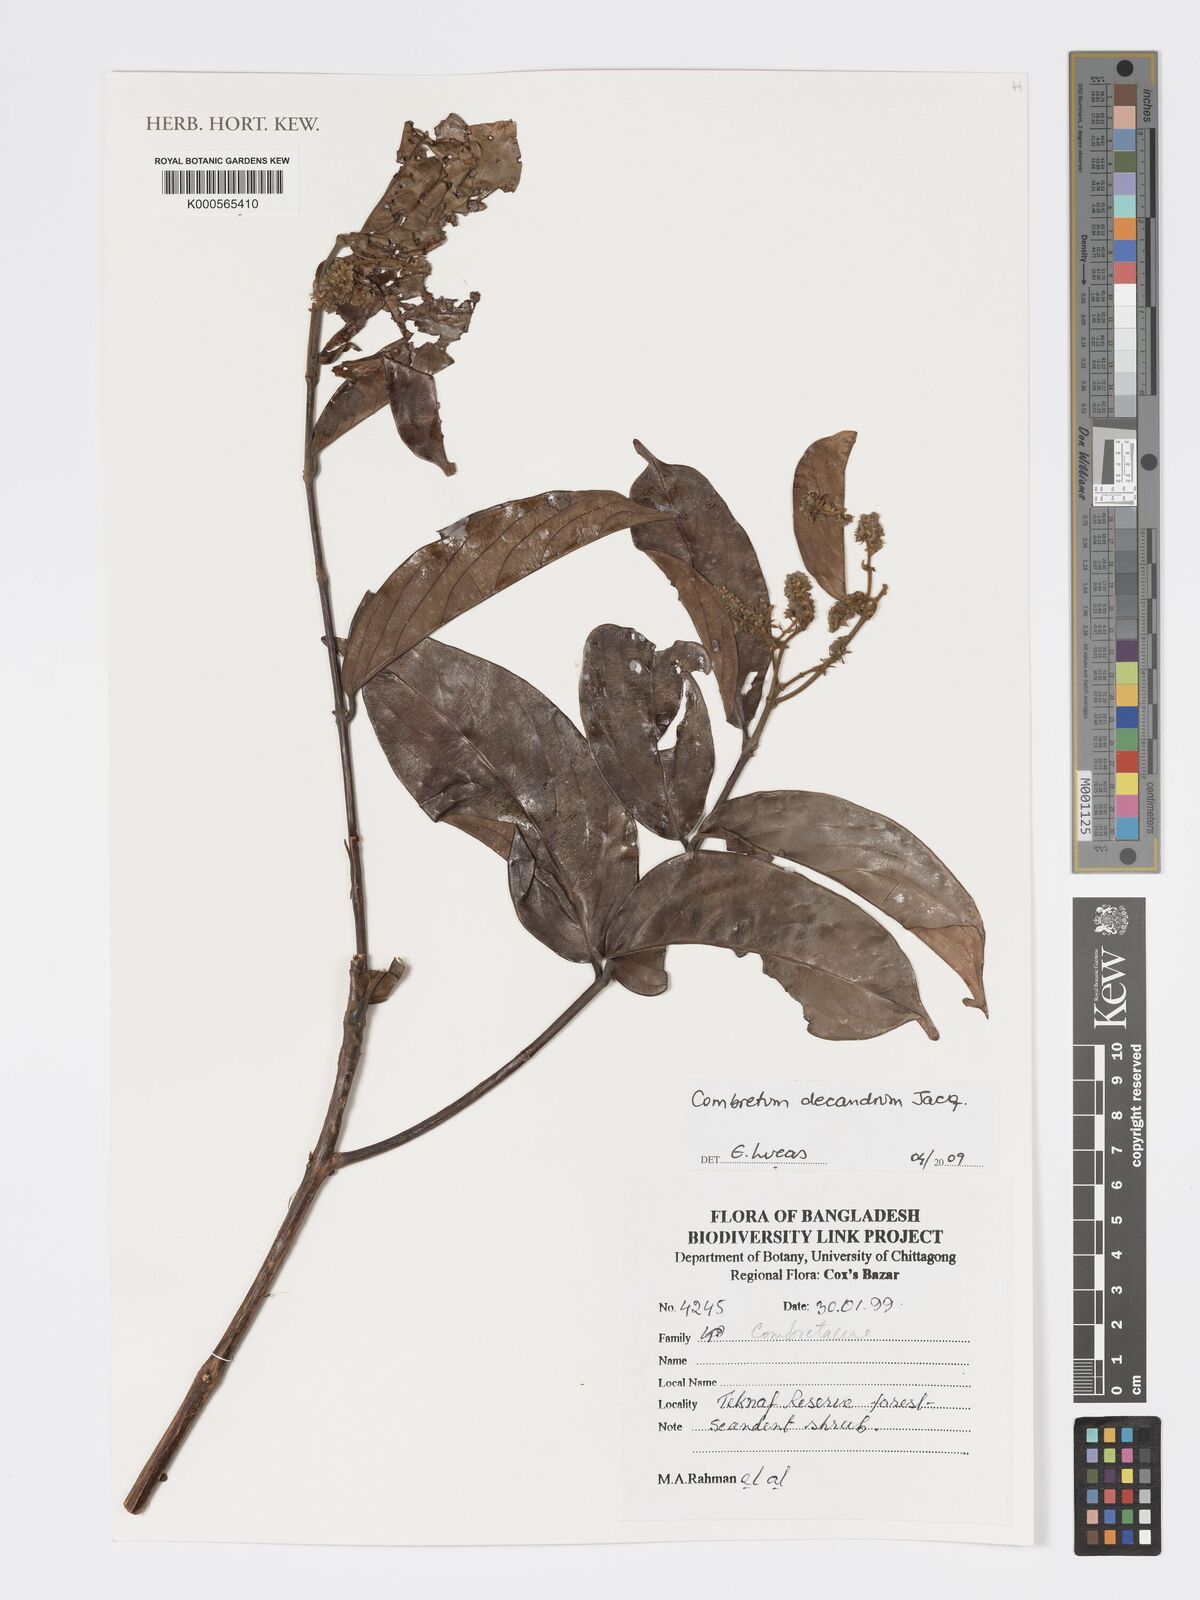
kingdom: Plantae
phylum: Tracheophyta
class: Magnoliopsida
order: Myrtales
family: Combretaceae
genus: Combretum
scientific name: Combretum decandrum
